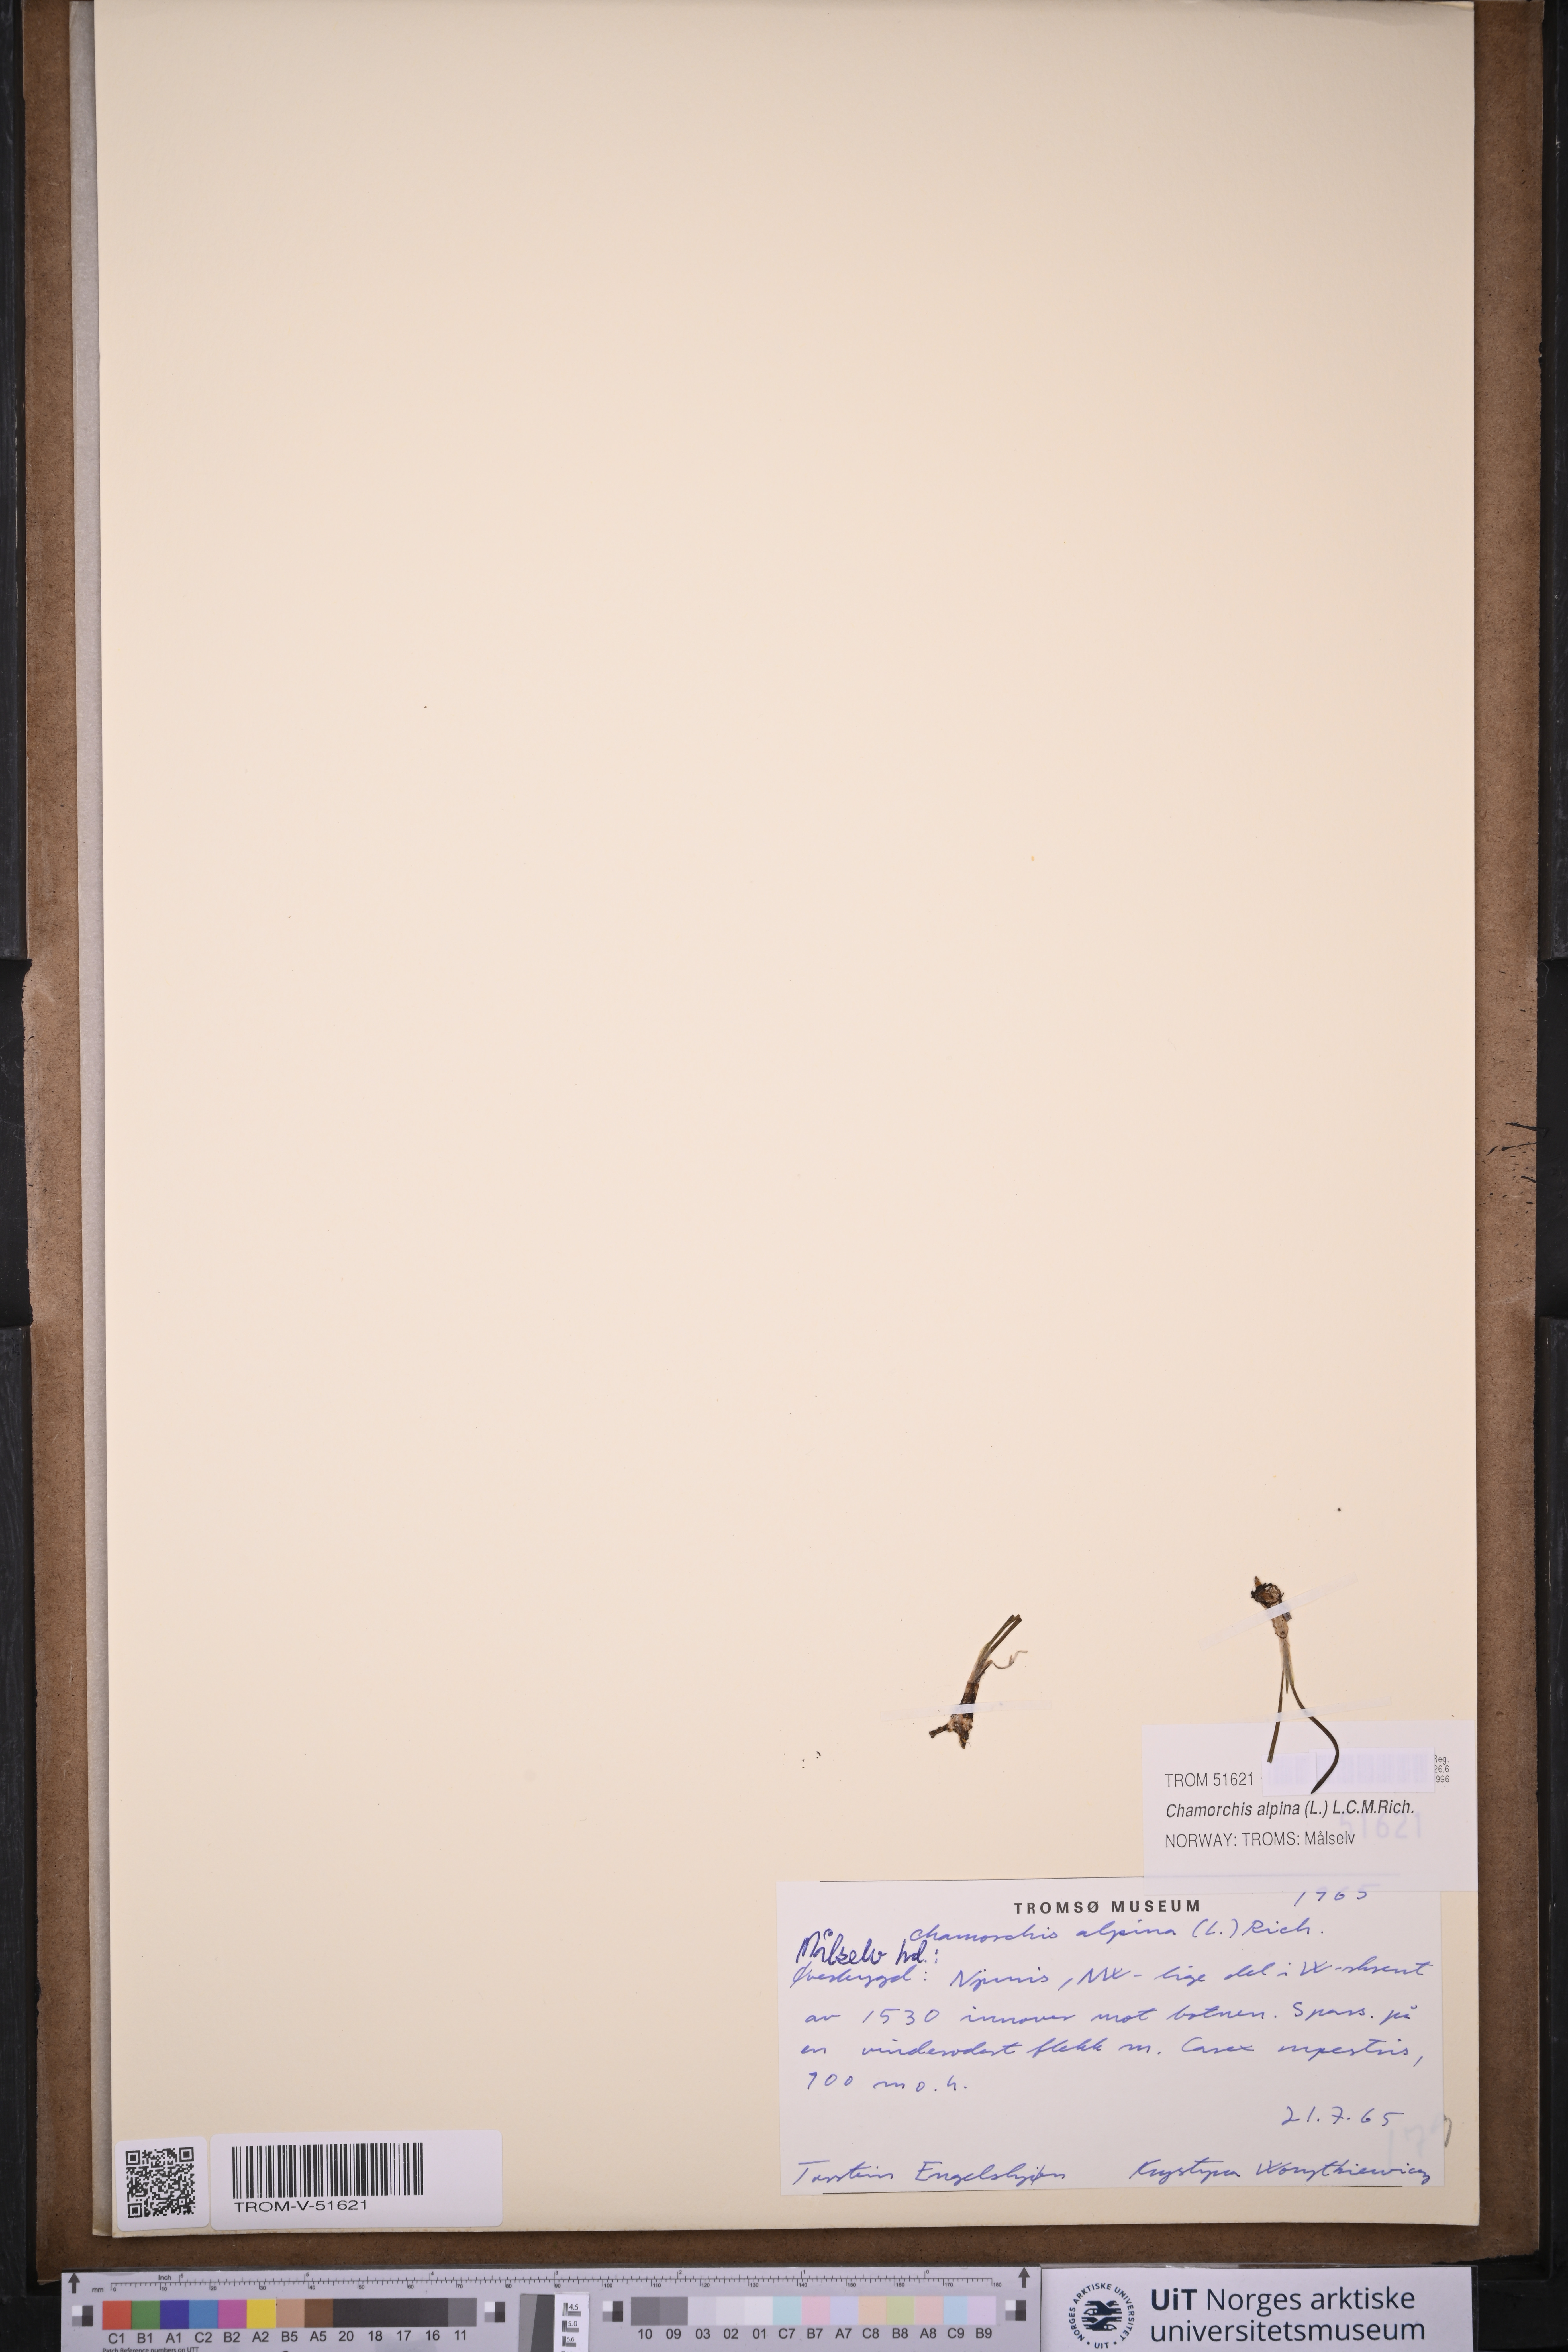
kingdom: Plantae
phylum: Tracheophyta
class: Liliopsida
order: Asparagales
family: Orchidaceae
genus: Chamorchis
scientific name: Chamorchis alpina
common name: Alpine chamorchis
